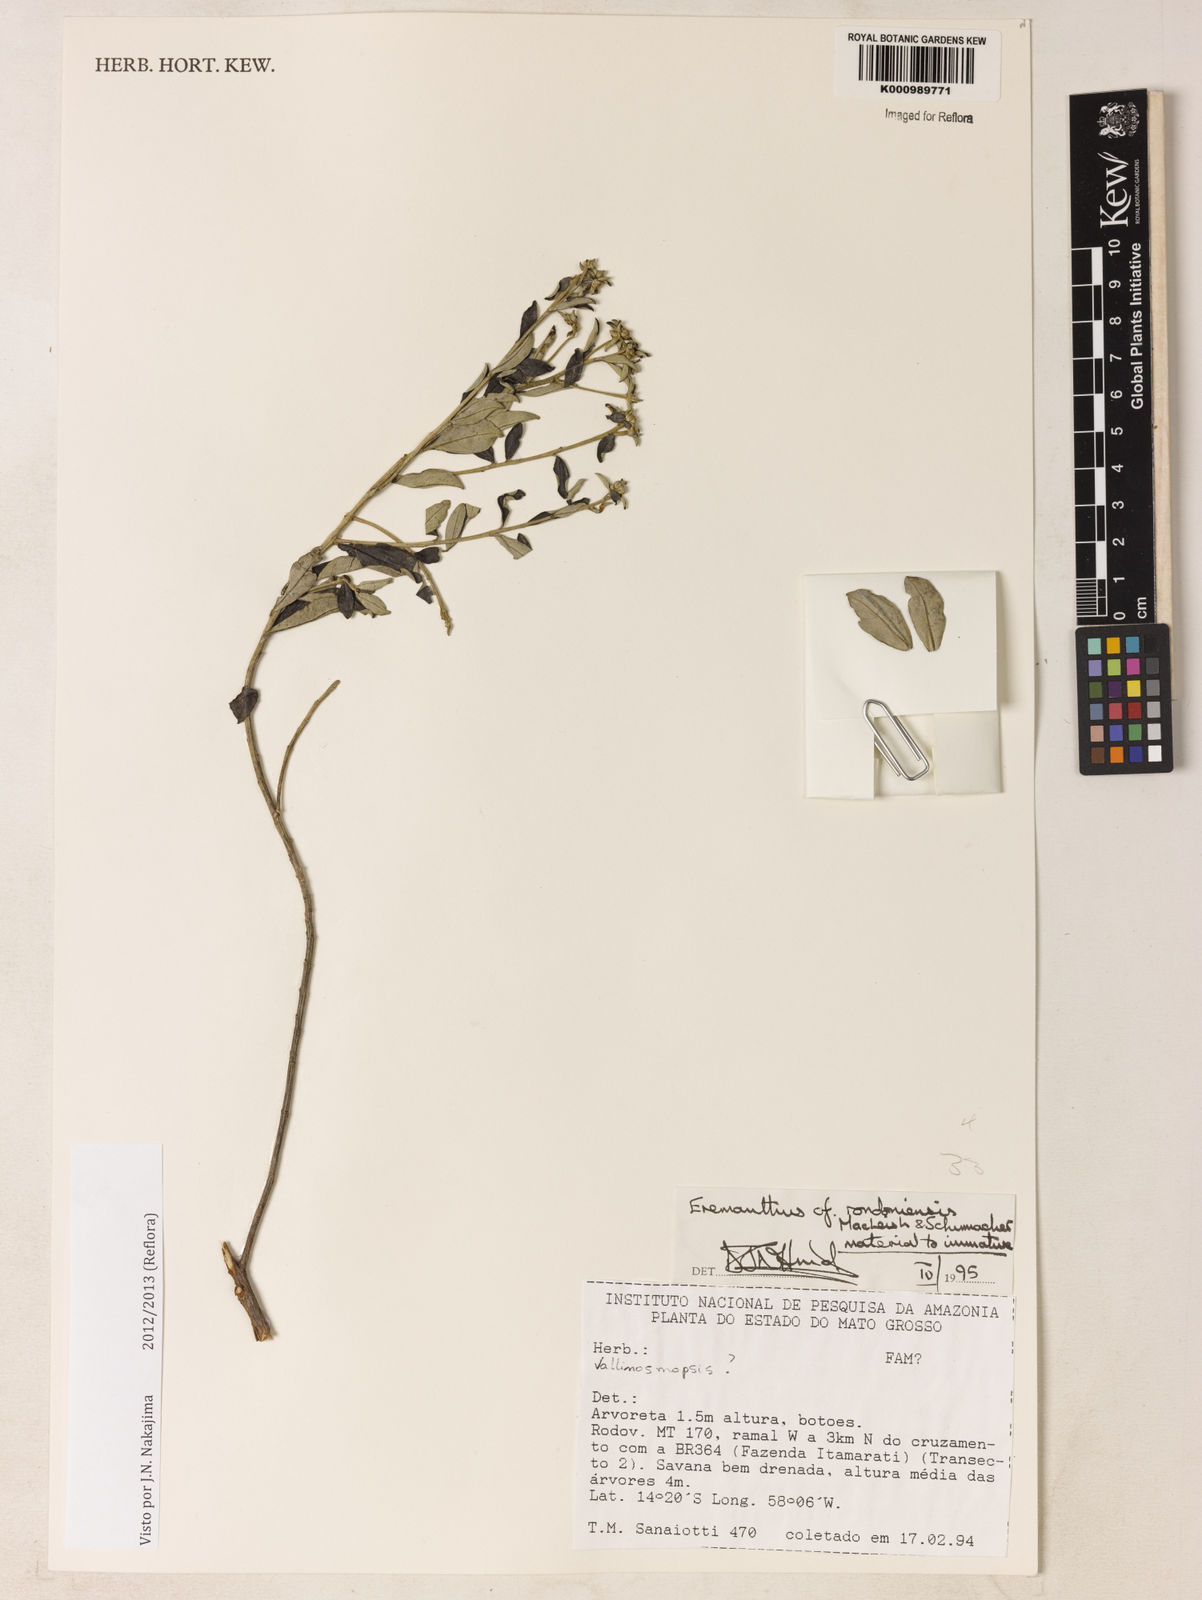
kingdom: Plantae
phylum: Tracheophyta
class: Magnoliopsida
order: Asterales
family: Asteraceae
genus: Eremanthus
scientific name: Eremanthus rondoniensis
